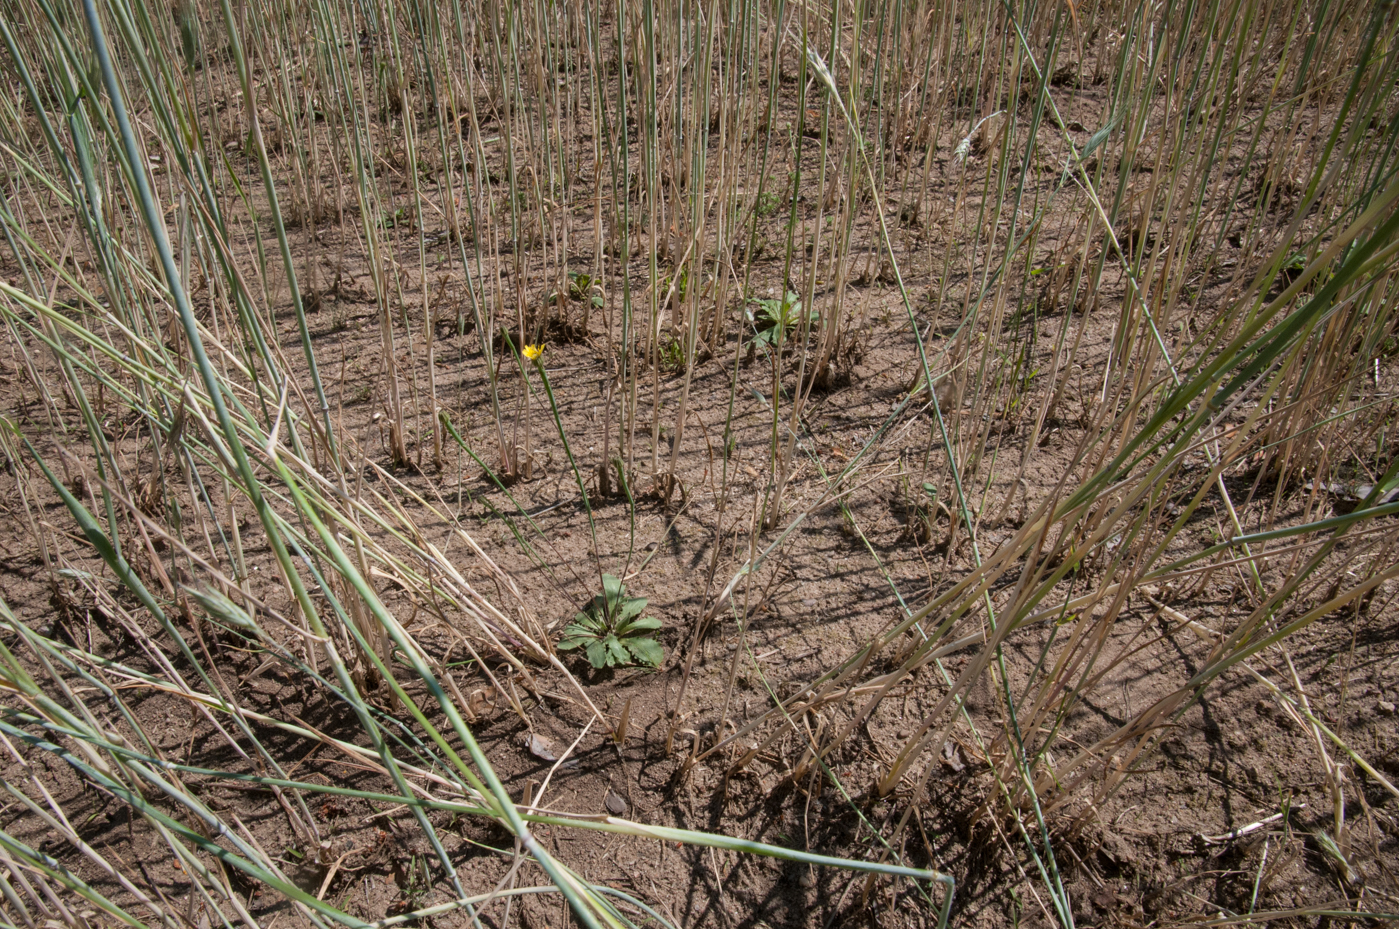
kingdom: Plantae
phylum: Tracheophyta
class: Magnoliopsida
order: Asterales
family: Asteraceae
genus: Arnoseris
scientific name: Arnoseris minima
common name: Lamb's succory
